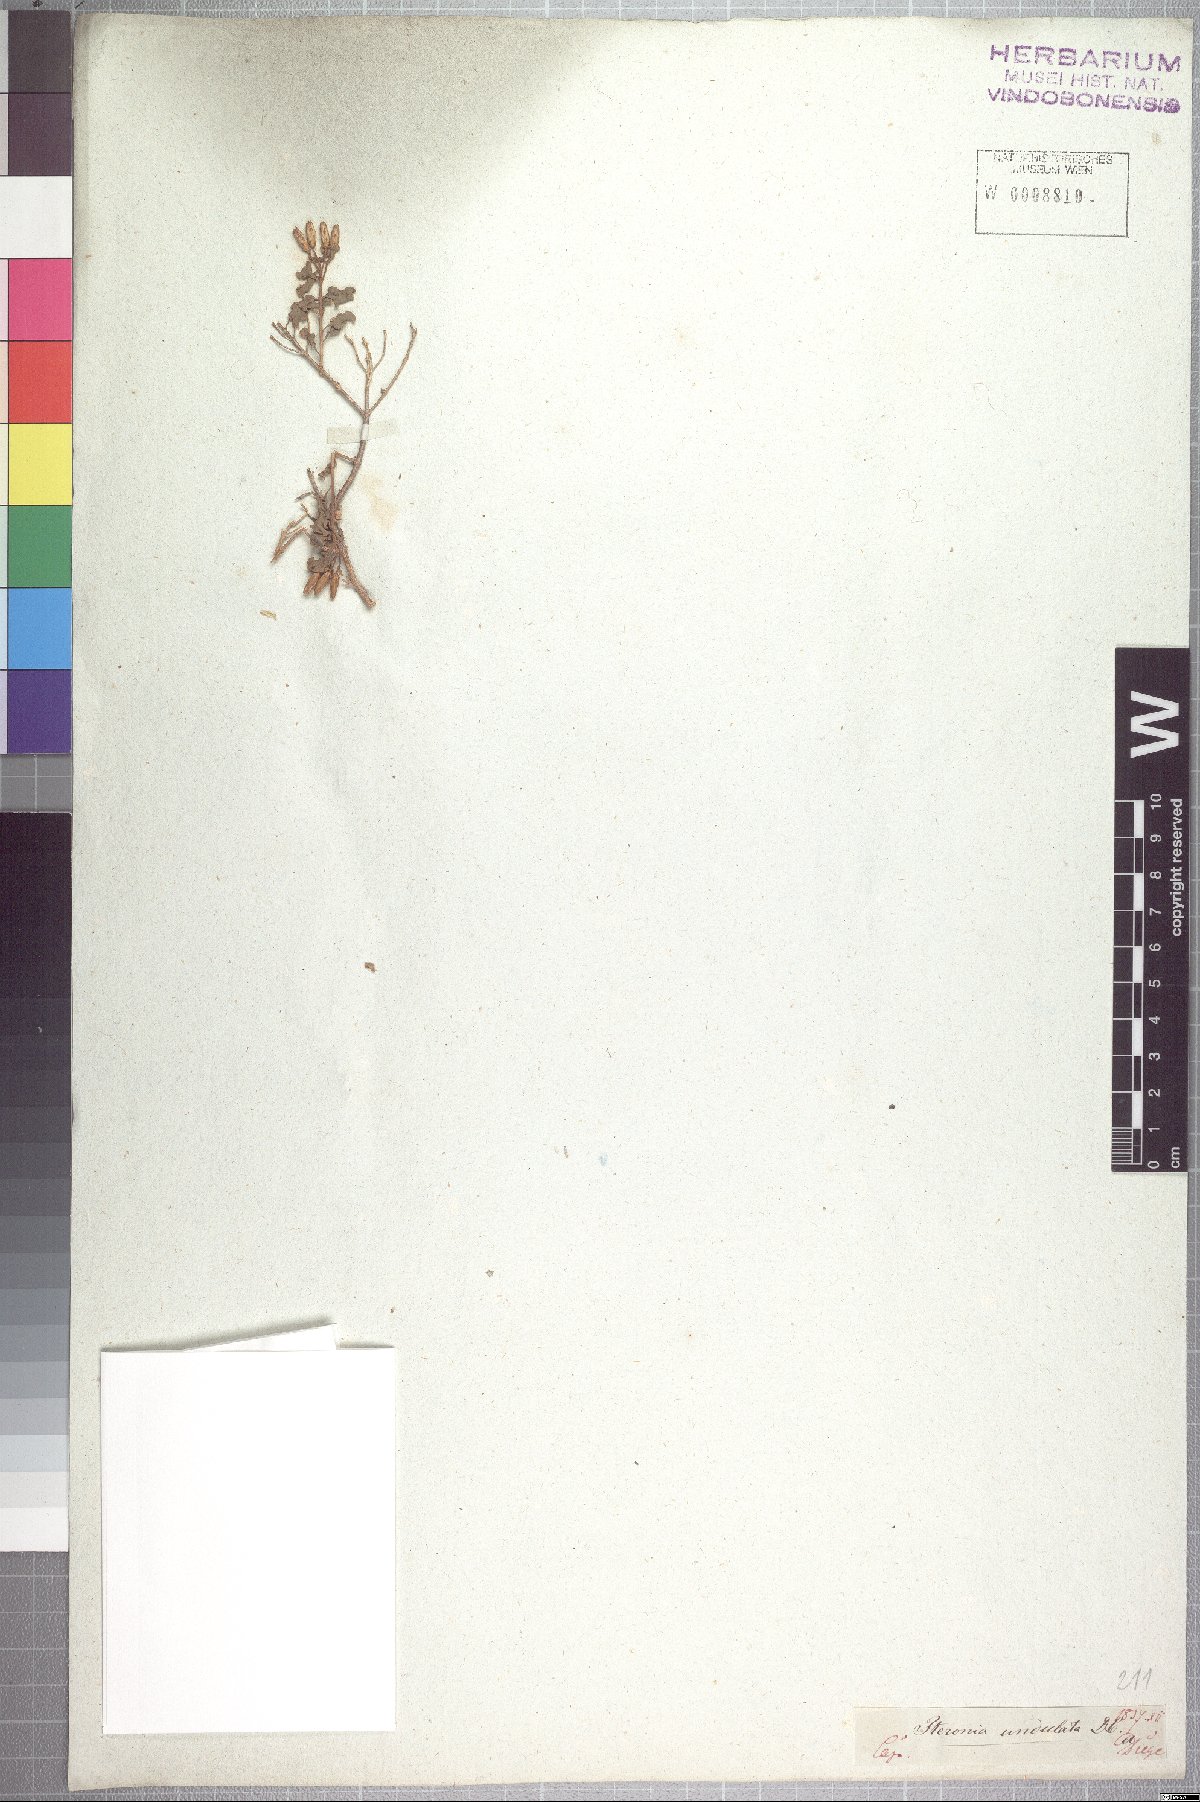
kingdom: Plantae
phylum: Tracheophyta
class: Magnoliopsida
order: Asterales
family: Asteraceae
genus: Pteronia
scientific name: Pteronia undulata
